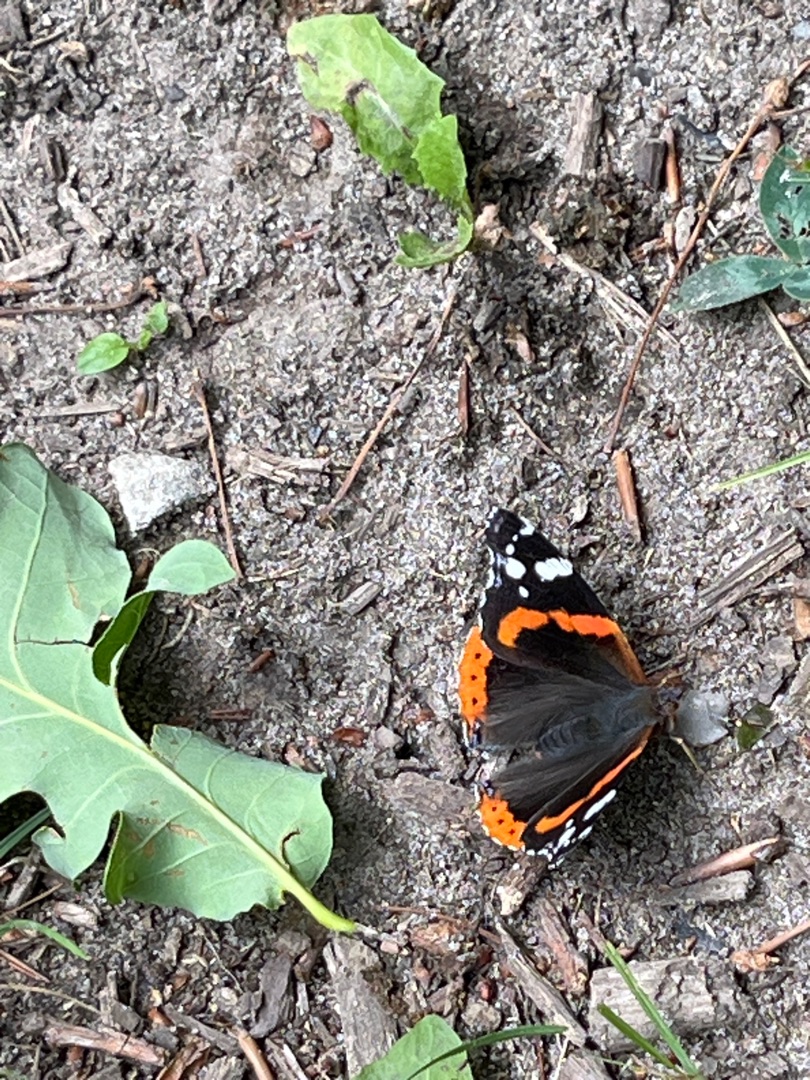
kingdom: Animalia
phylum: Arthropoda
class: Insecta
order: Lepidoptera
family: Nymphalidae
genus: Vanessa
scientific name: Vanessa atalanta
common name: Admiral
